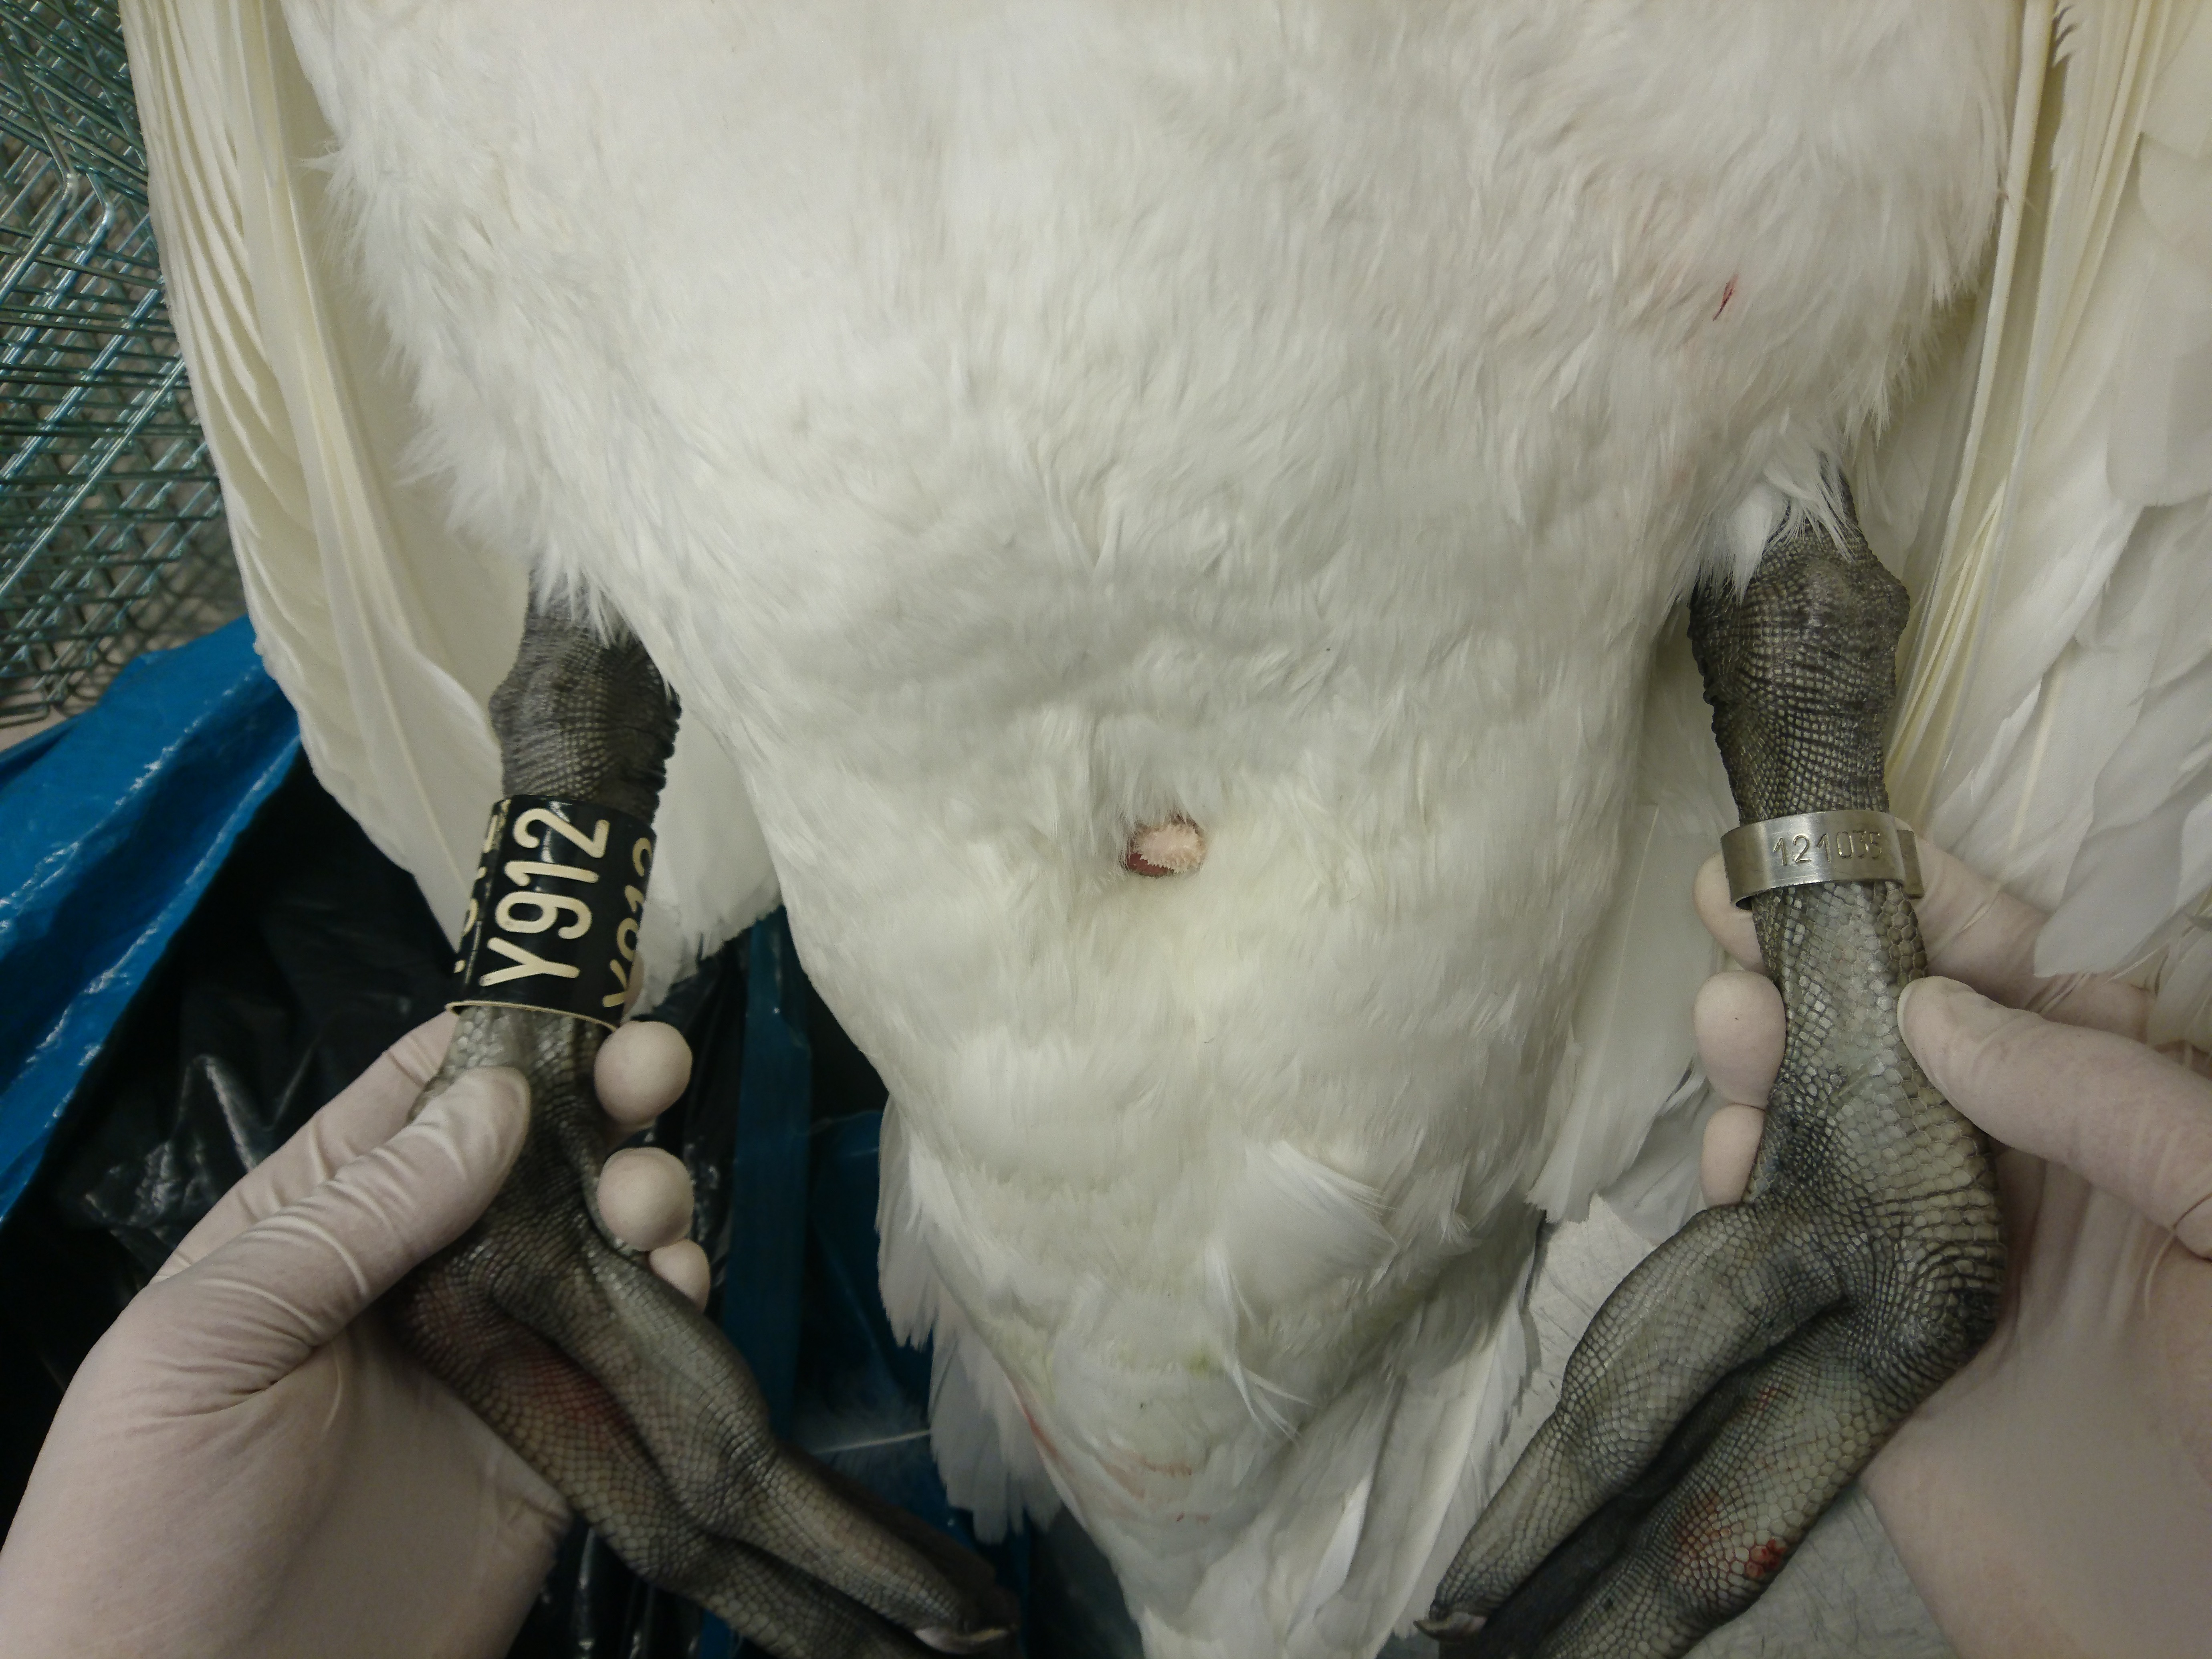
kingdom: Animalia
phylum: Chordata
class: Aves
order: Anseriformes
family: Anatidae
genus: Cygnus
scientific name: Cygnus olor
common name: Mute swan
